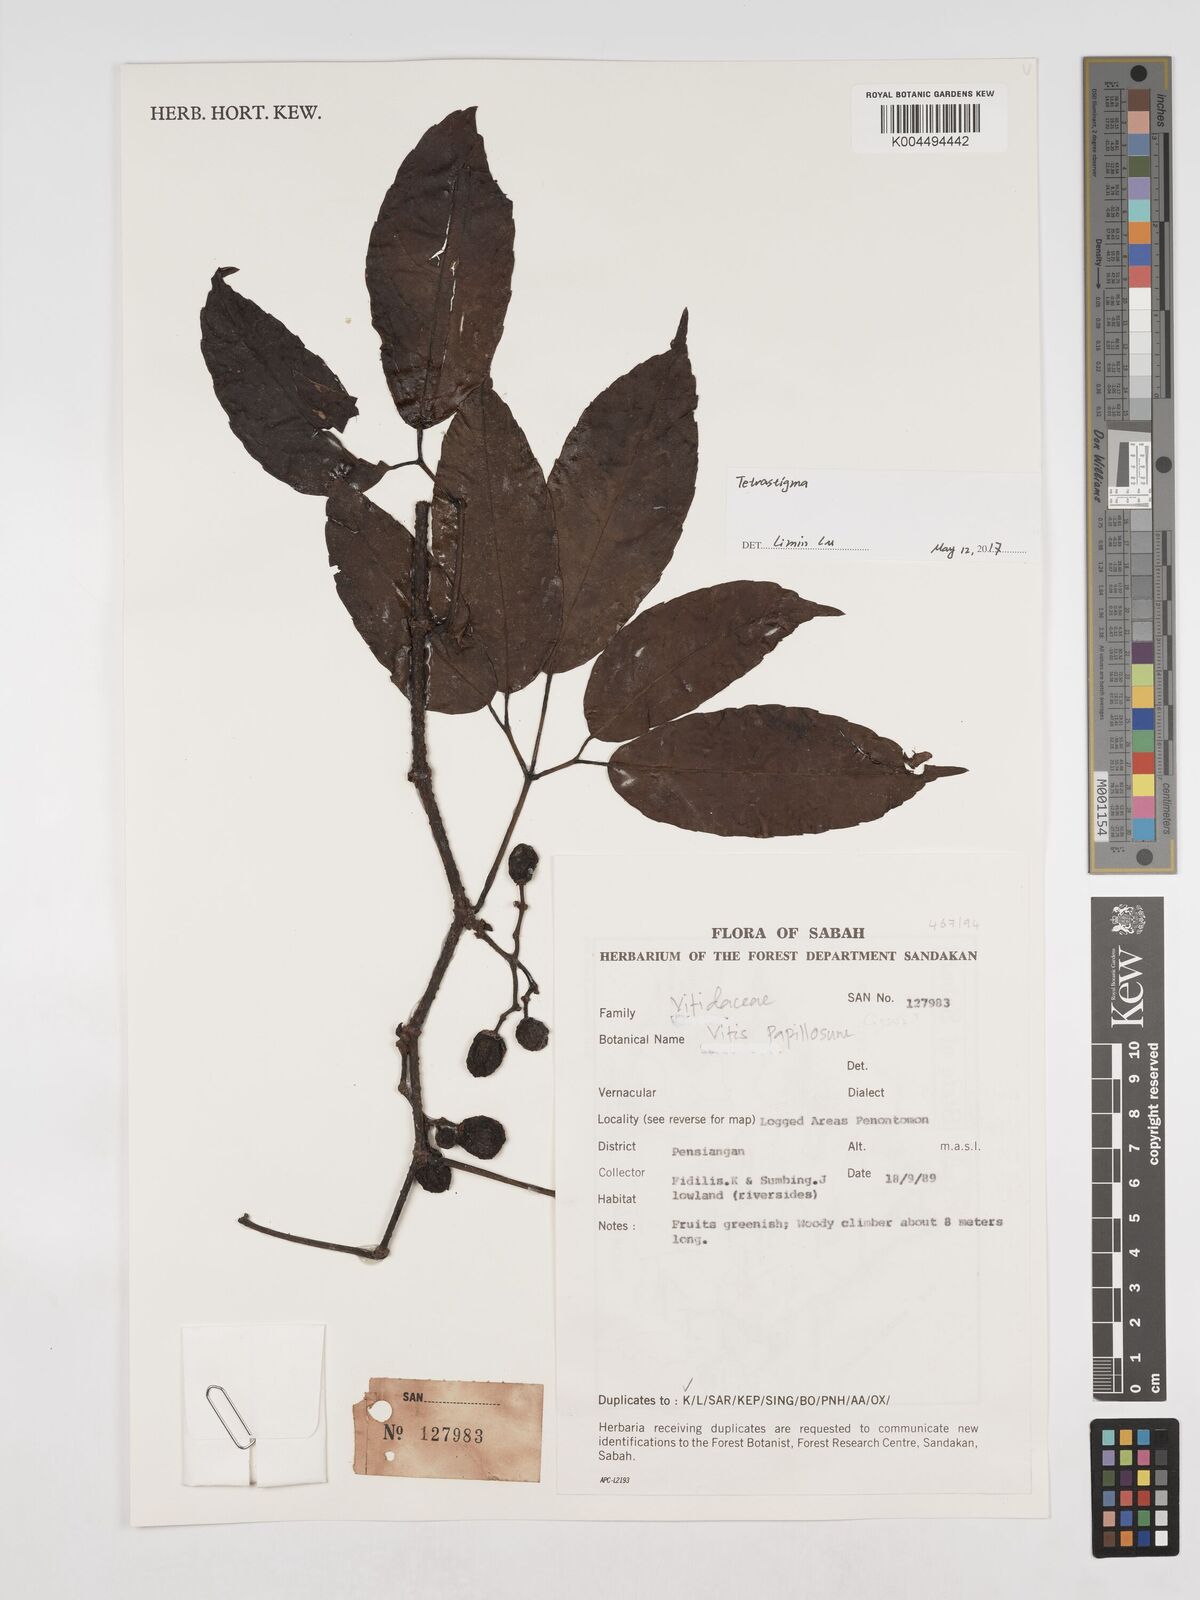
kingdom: Plantae
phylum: Tracheophyta
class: Magnoliopsida
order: Vitales
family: Vitaceae
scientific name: Vitaceae
